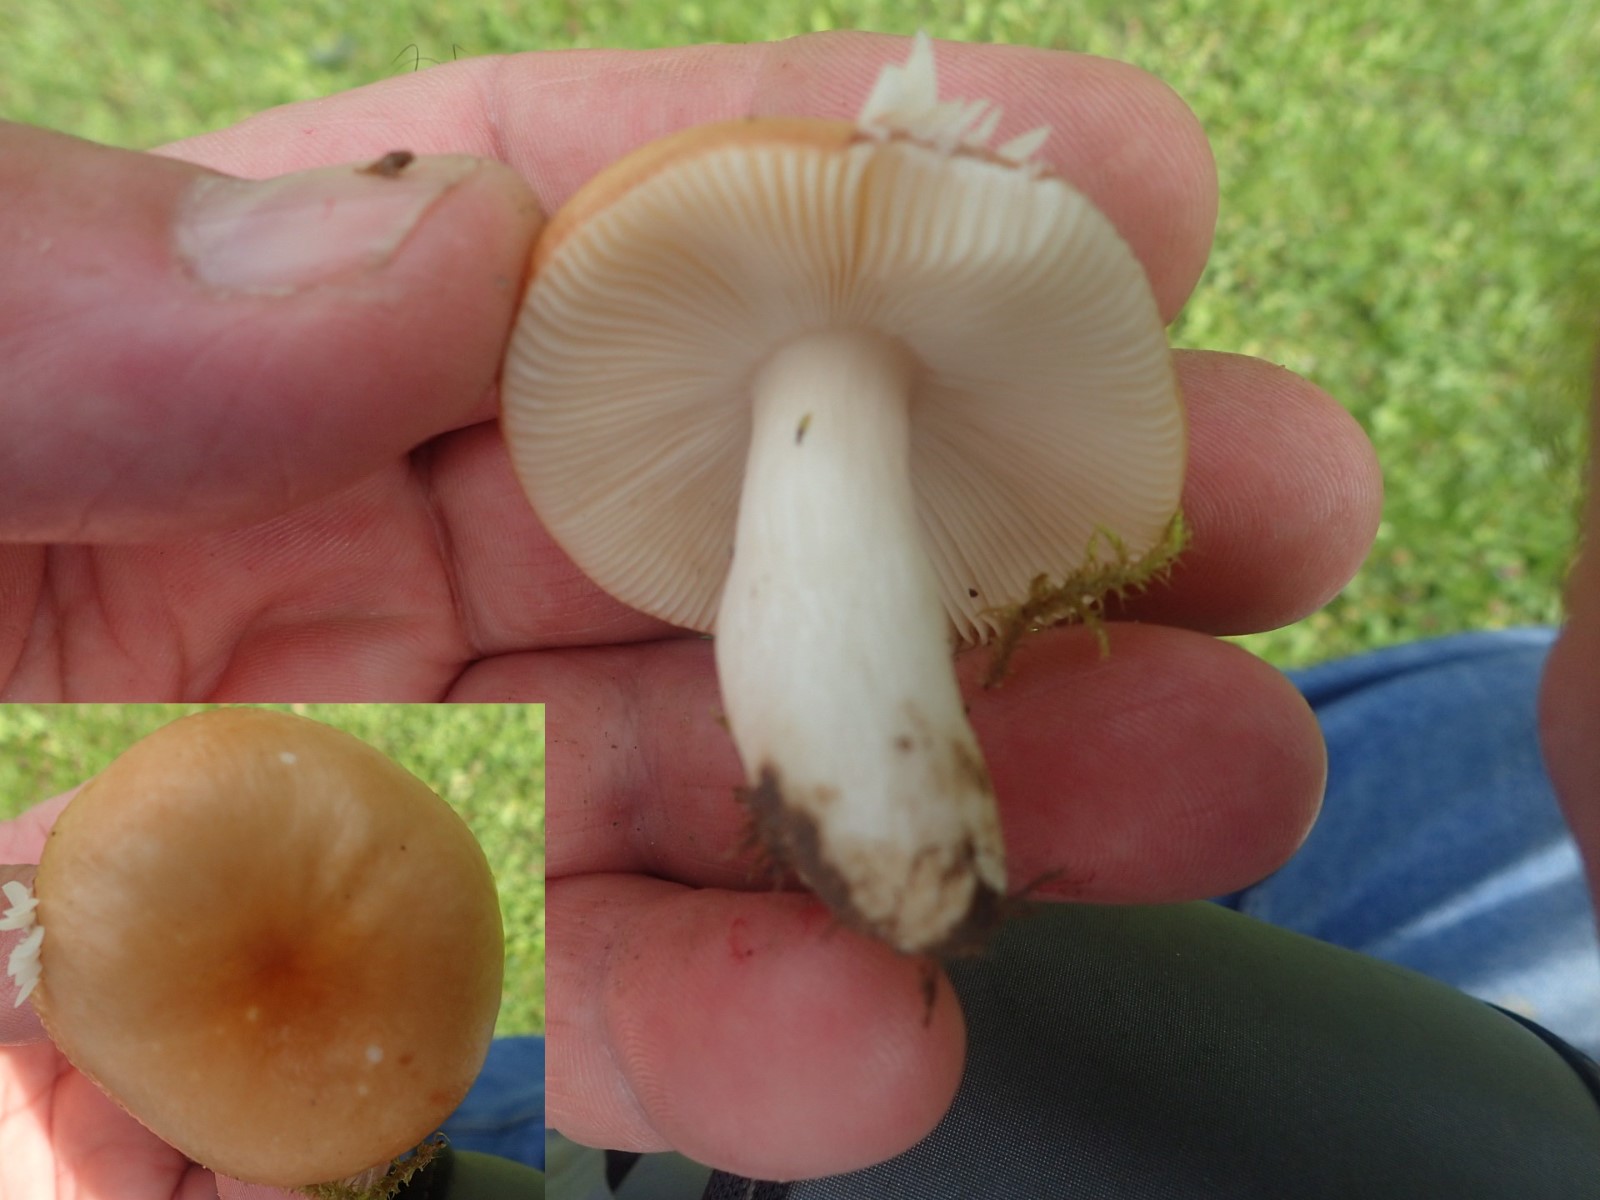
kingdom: Fungi
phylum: Basidiomycota
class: Agaricomycetes
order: Russulales
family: Russulaceae
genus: Russula
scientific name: Russula
